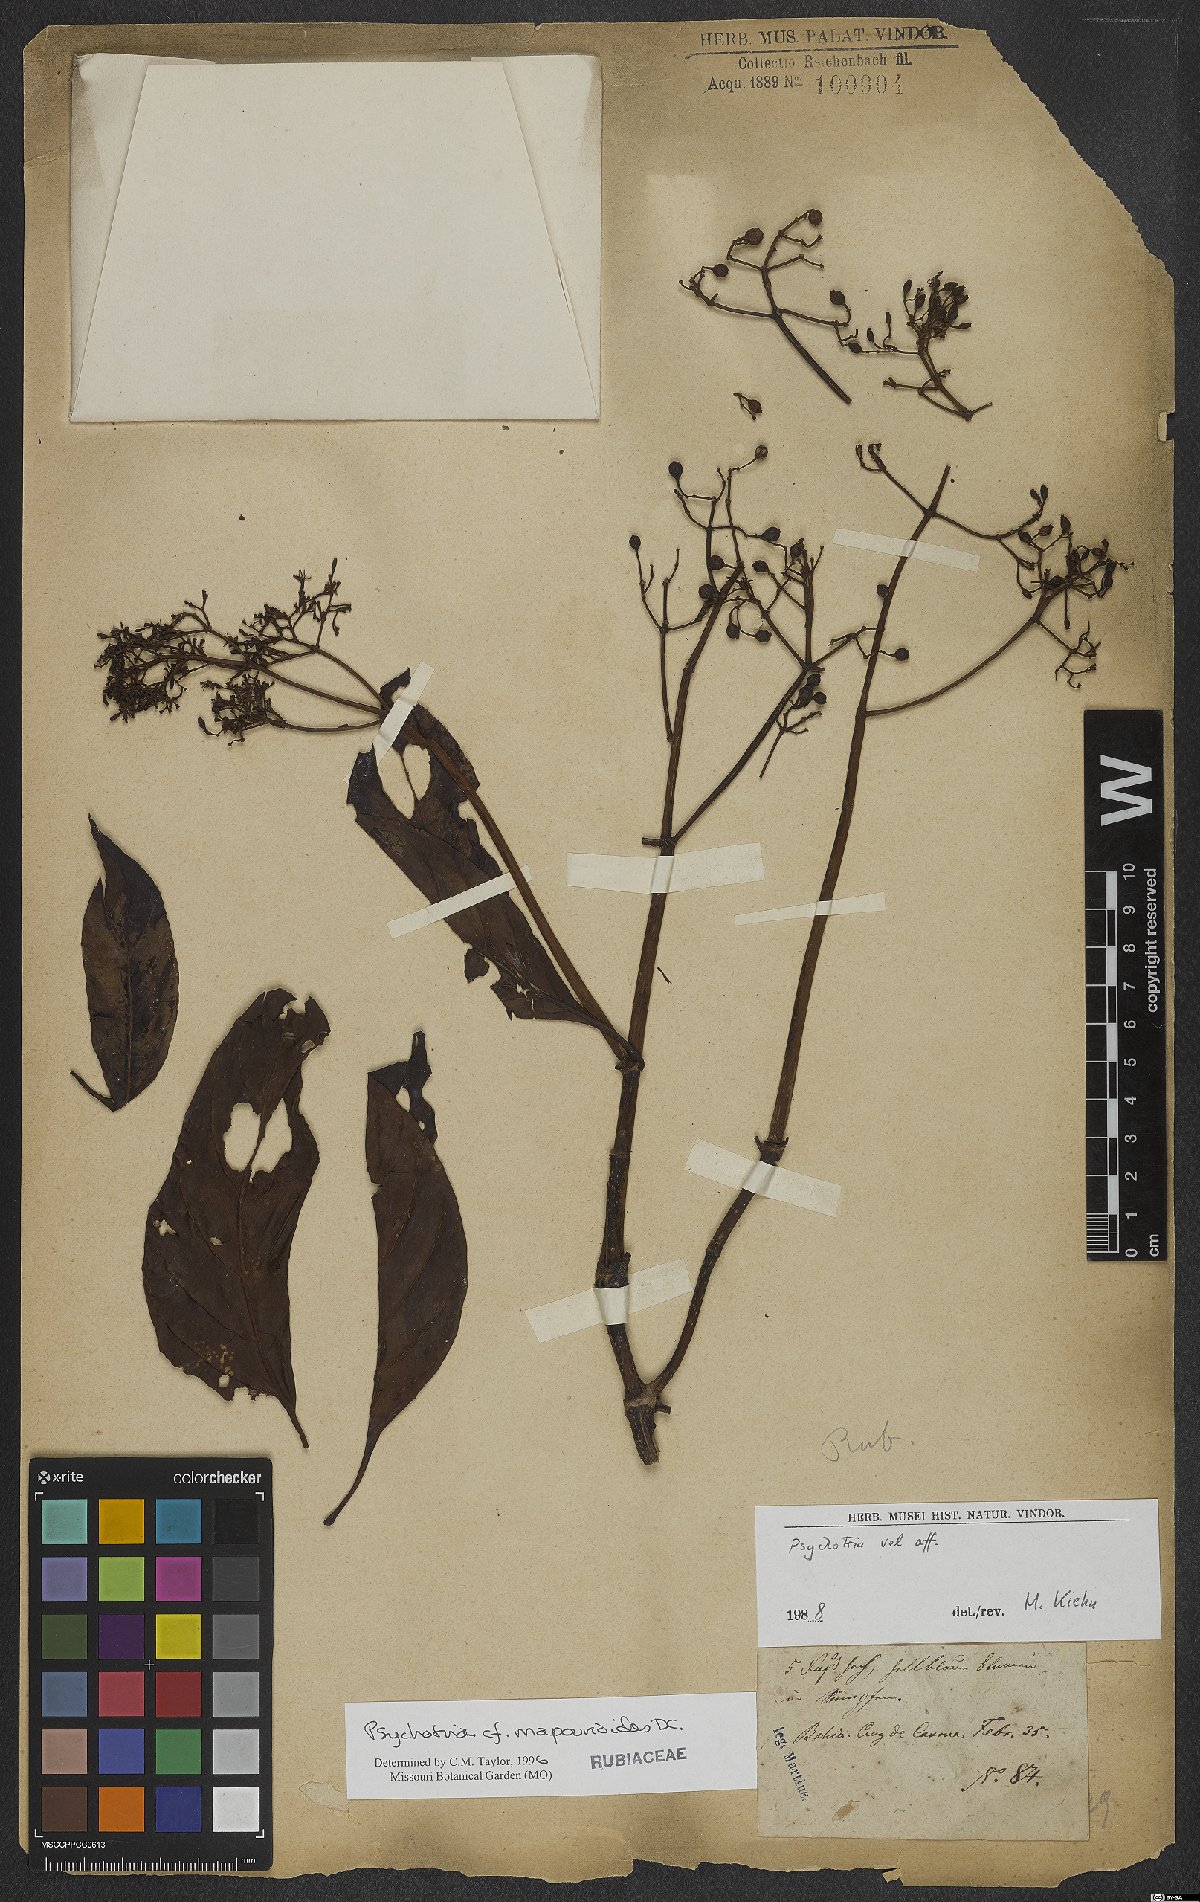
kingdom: Plantae
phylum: Tracheophyta
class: Magnoliopsida
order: Gentianales
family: Rubiaceae
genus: Psychotria
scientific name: Psychotria pedunculosa
